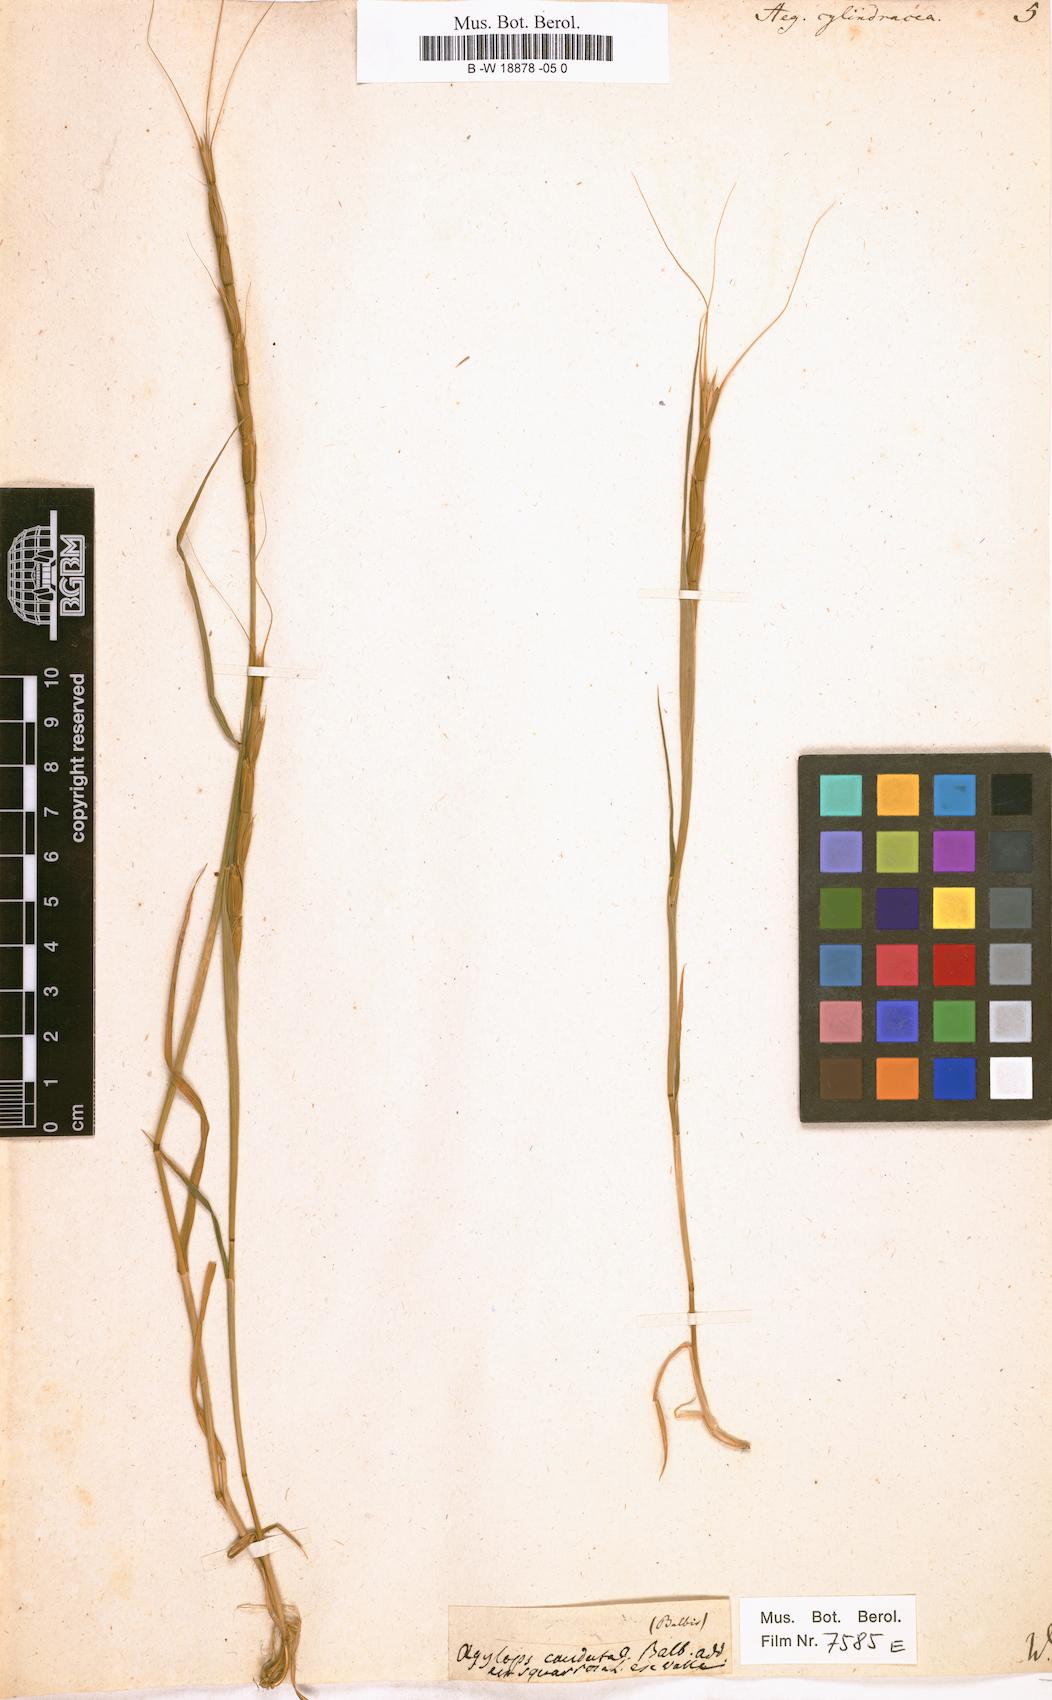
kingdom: Plantae
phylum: Tracheophyta
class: Liliopsida
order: Poales
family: Poaceae
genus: Aegilops
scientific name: Aegilops cylindrica
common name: Jointed goatgrass
